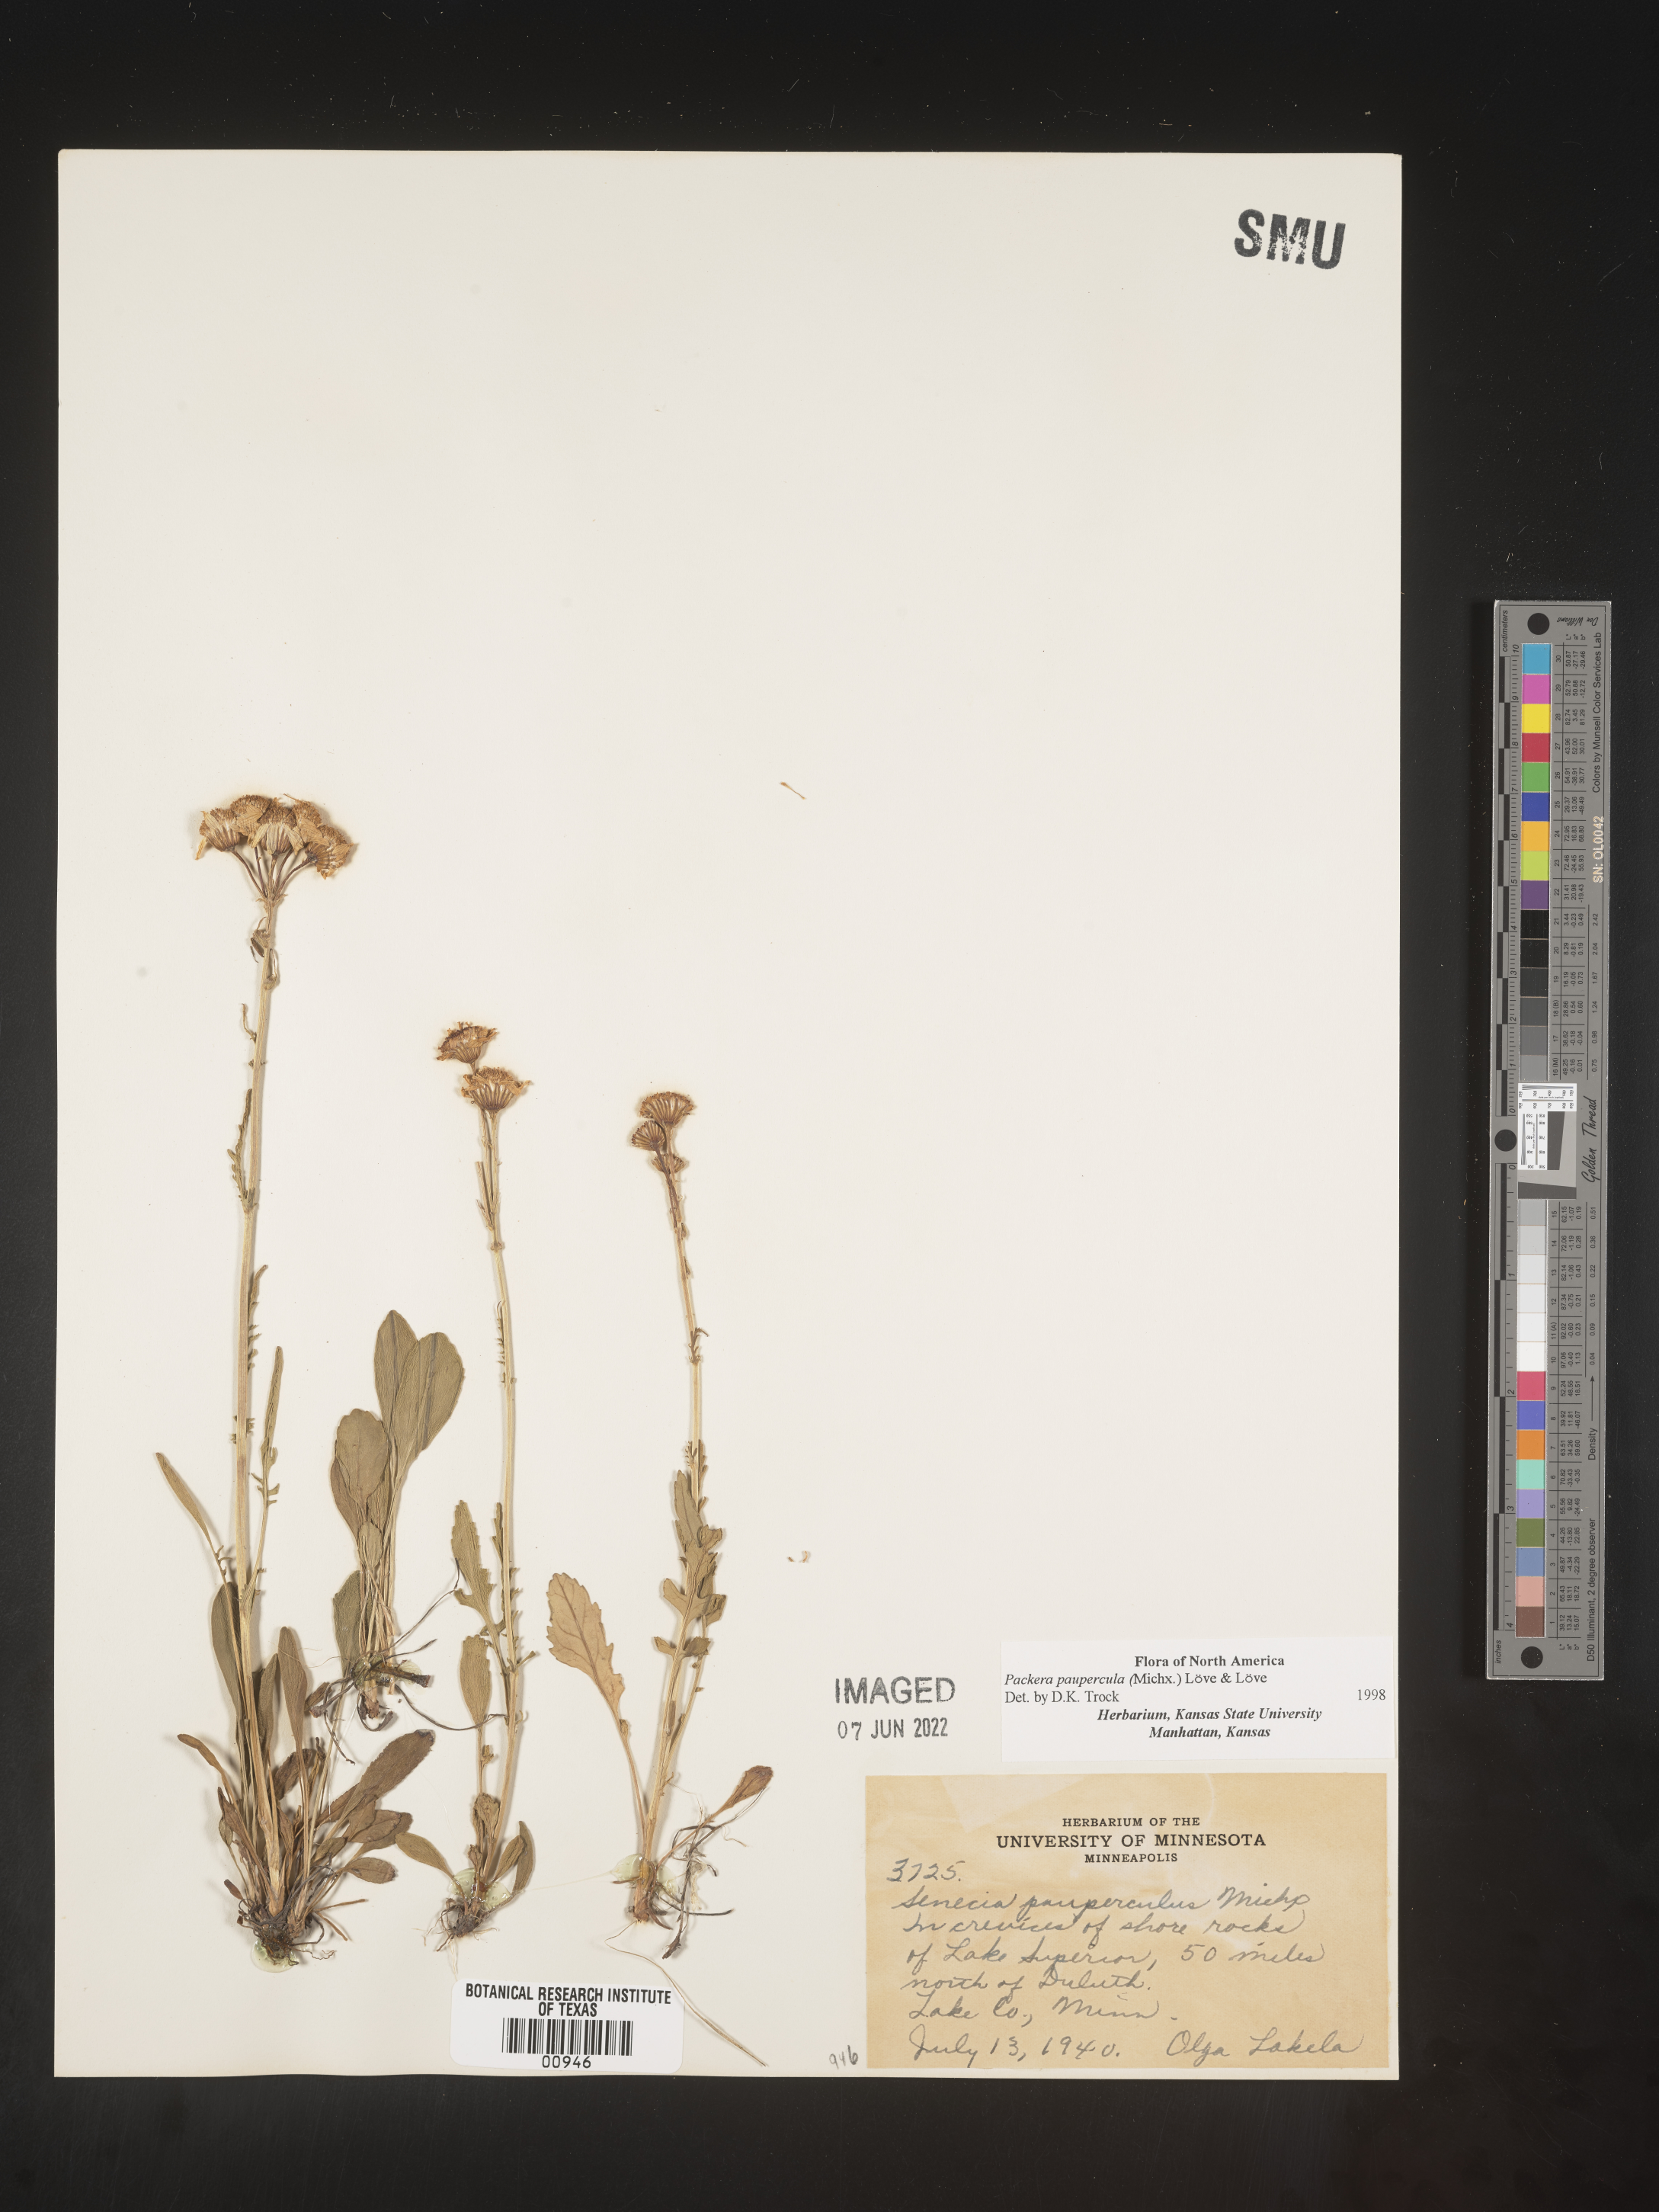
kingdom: Plantae
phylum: Tracheophyta
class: Magnoliopsida
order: Asterales
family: Asteraceae
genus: Packera
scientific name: Packera paupercula
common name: Balsam groundsel
